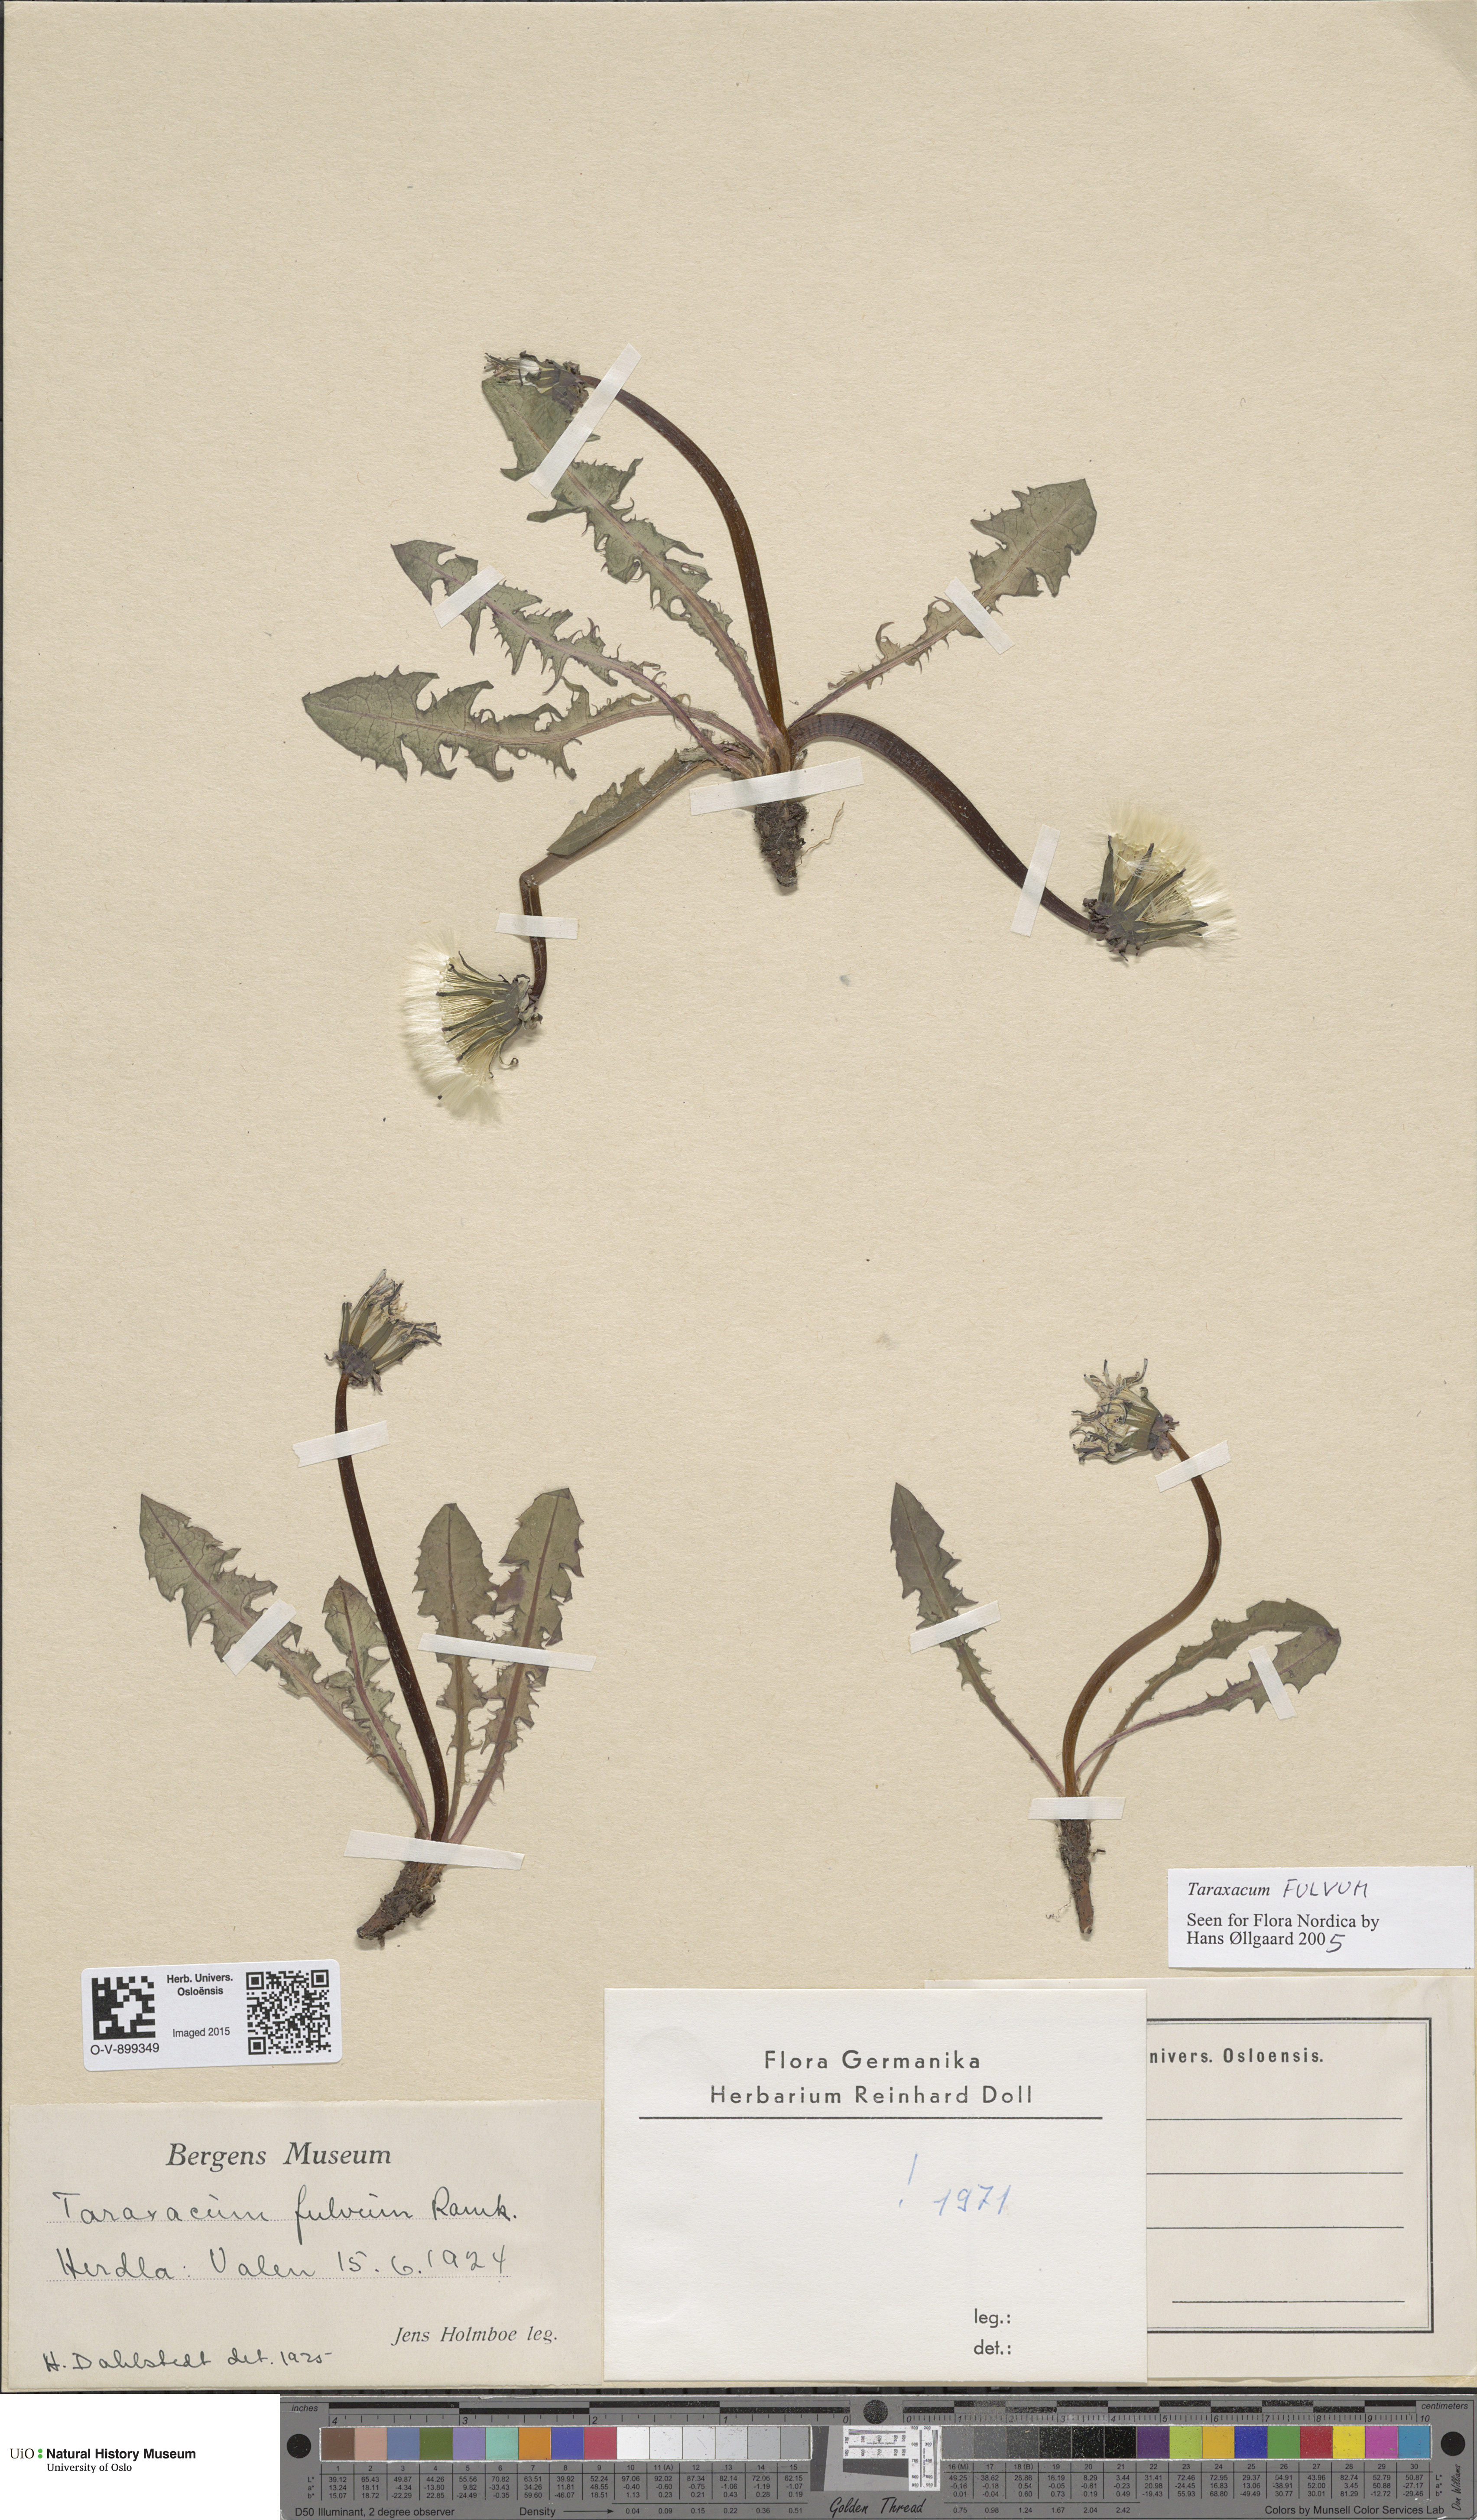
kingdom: Plantae
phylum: Tracheophyta
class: Magnoliopsida
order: Asterales
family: Asteraceae
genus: Taraxacum
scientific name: Taraxacum fulvum
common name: Cinnamon-fruited dandelion
